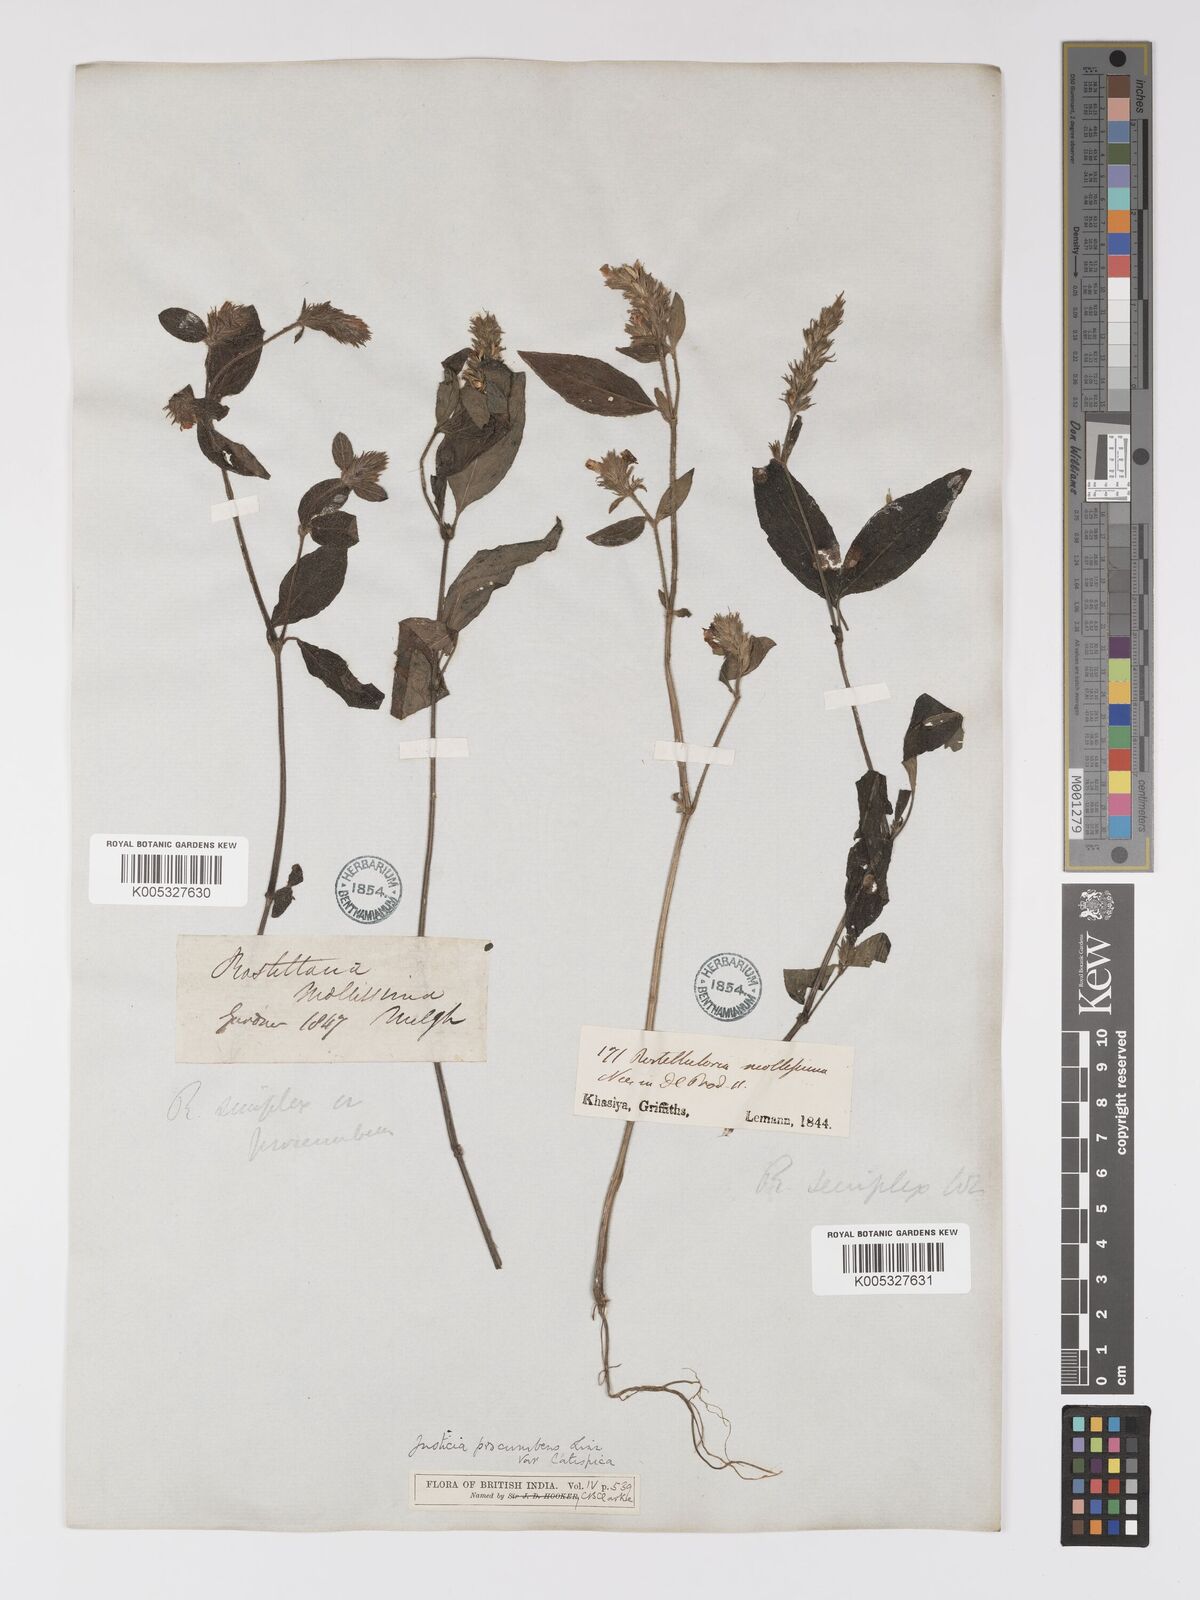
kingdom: Plantae
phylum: Tracheophyta
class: Magnoliopsida
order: Lamiales
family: Acanthaceae
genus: Rostellularia
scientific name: Rostellularia latispica
